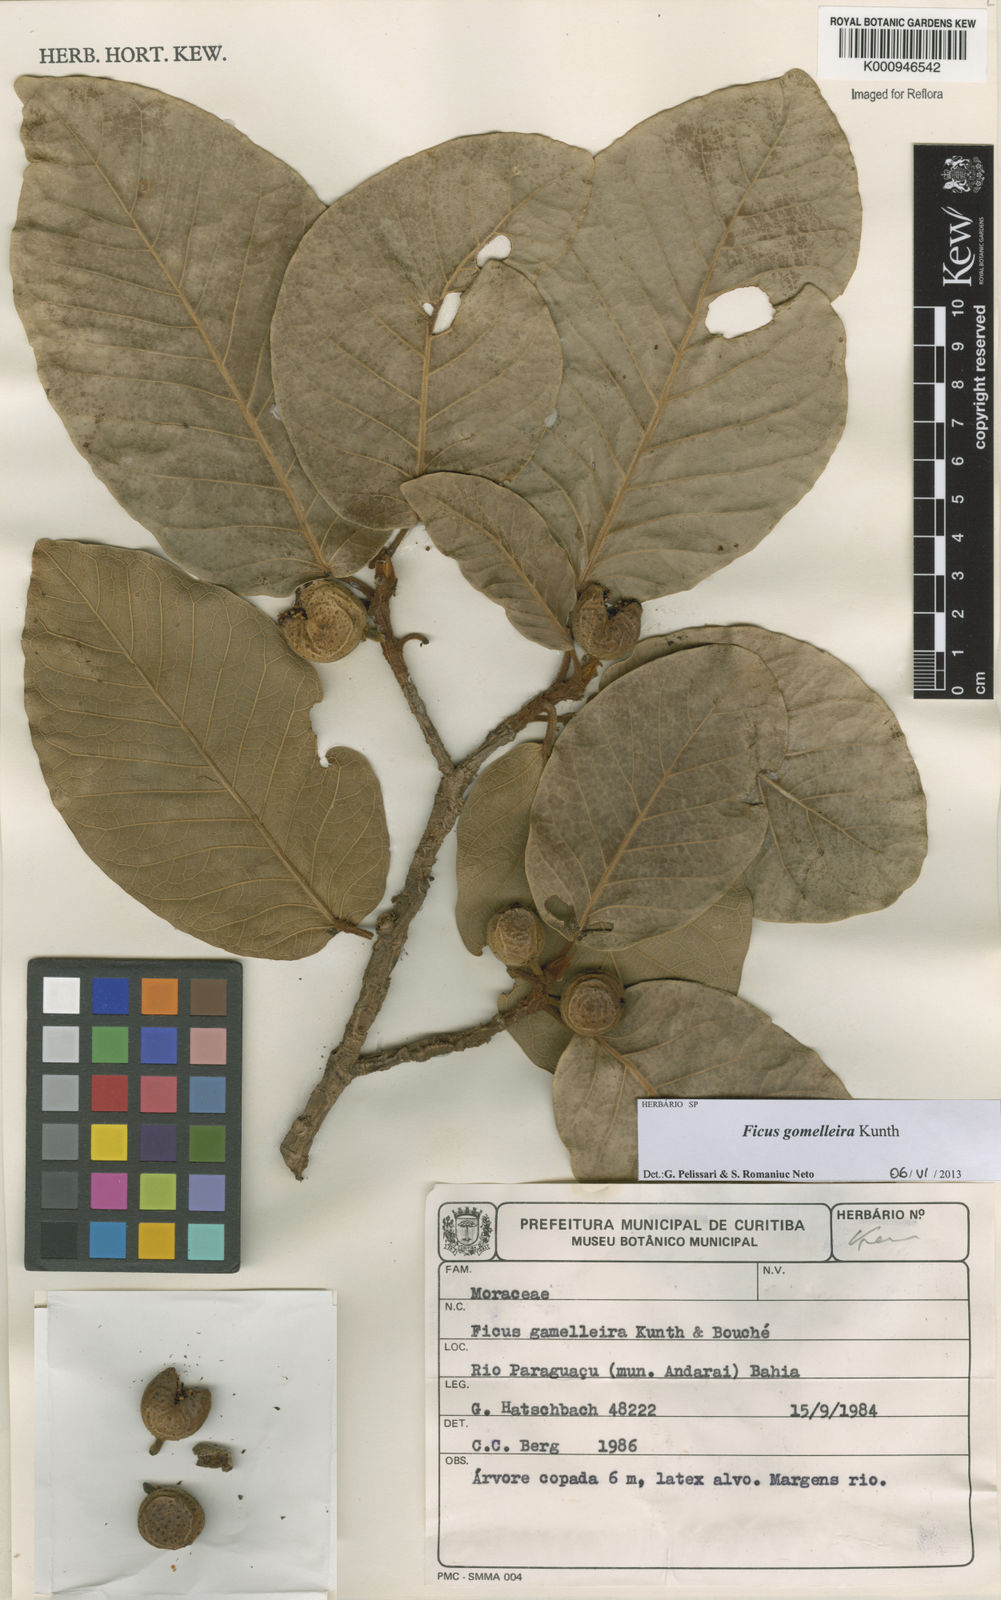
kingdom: Plantae
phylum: Tracheophyta
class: Magnoliopsida
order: Rosales
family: Moraceae
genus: Ficus
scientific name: Ficus gomelleira
